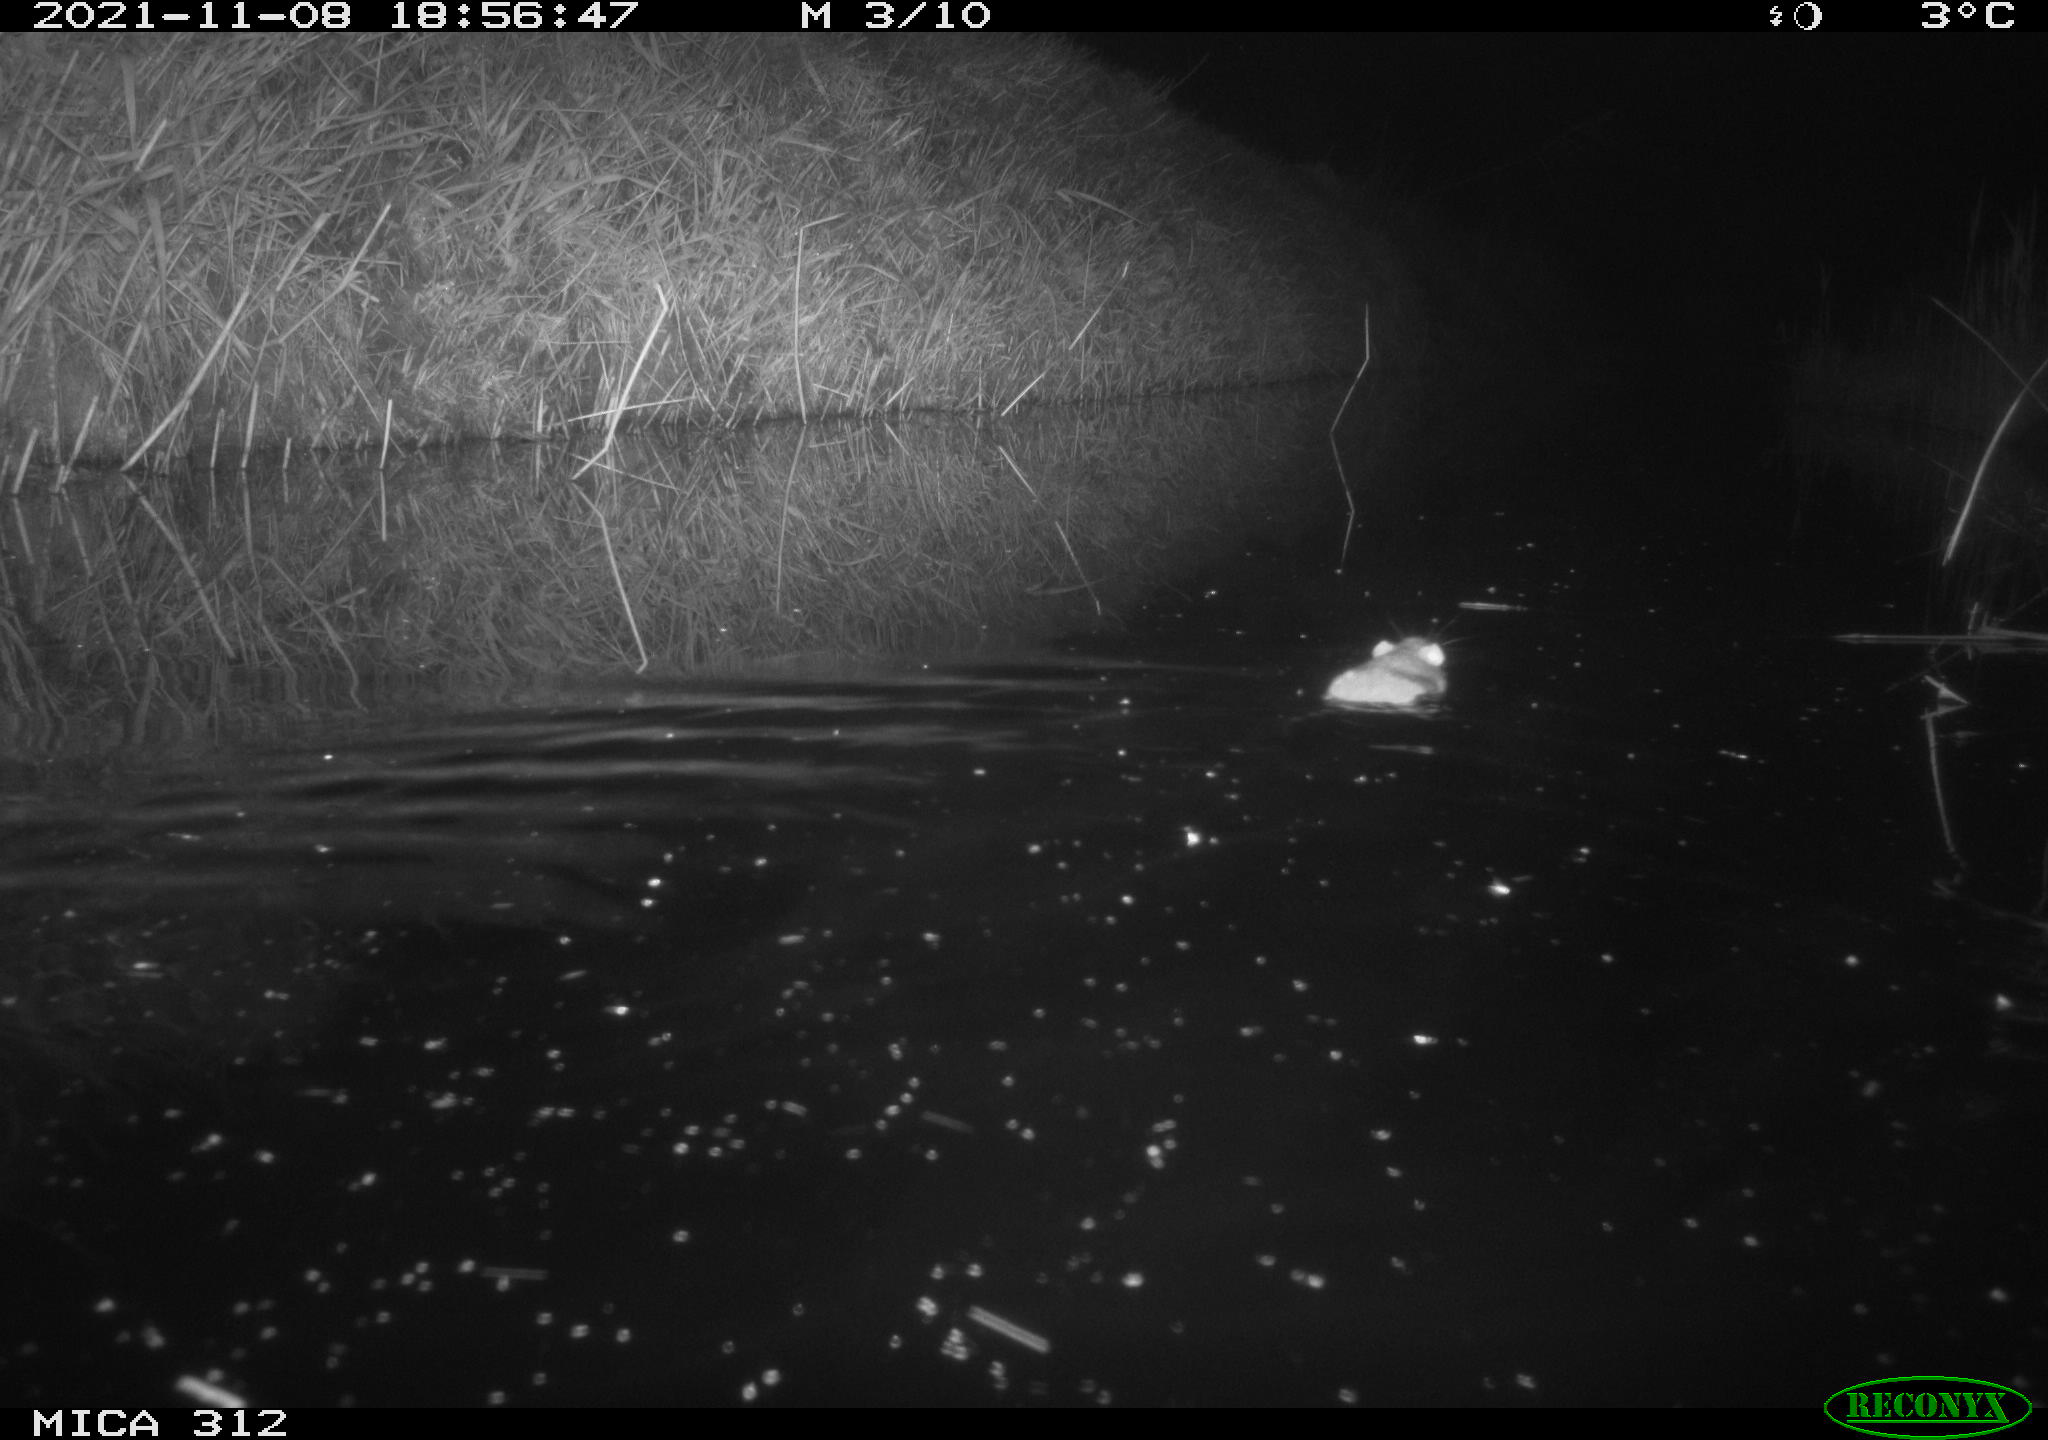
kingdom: Animalia
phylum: Chordata
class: Mammalia
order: Rodentia
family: Muridae
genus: Rattus
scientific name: Rattus norvegicus
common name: Brown rat
